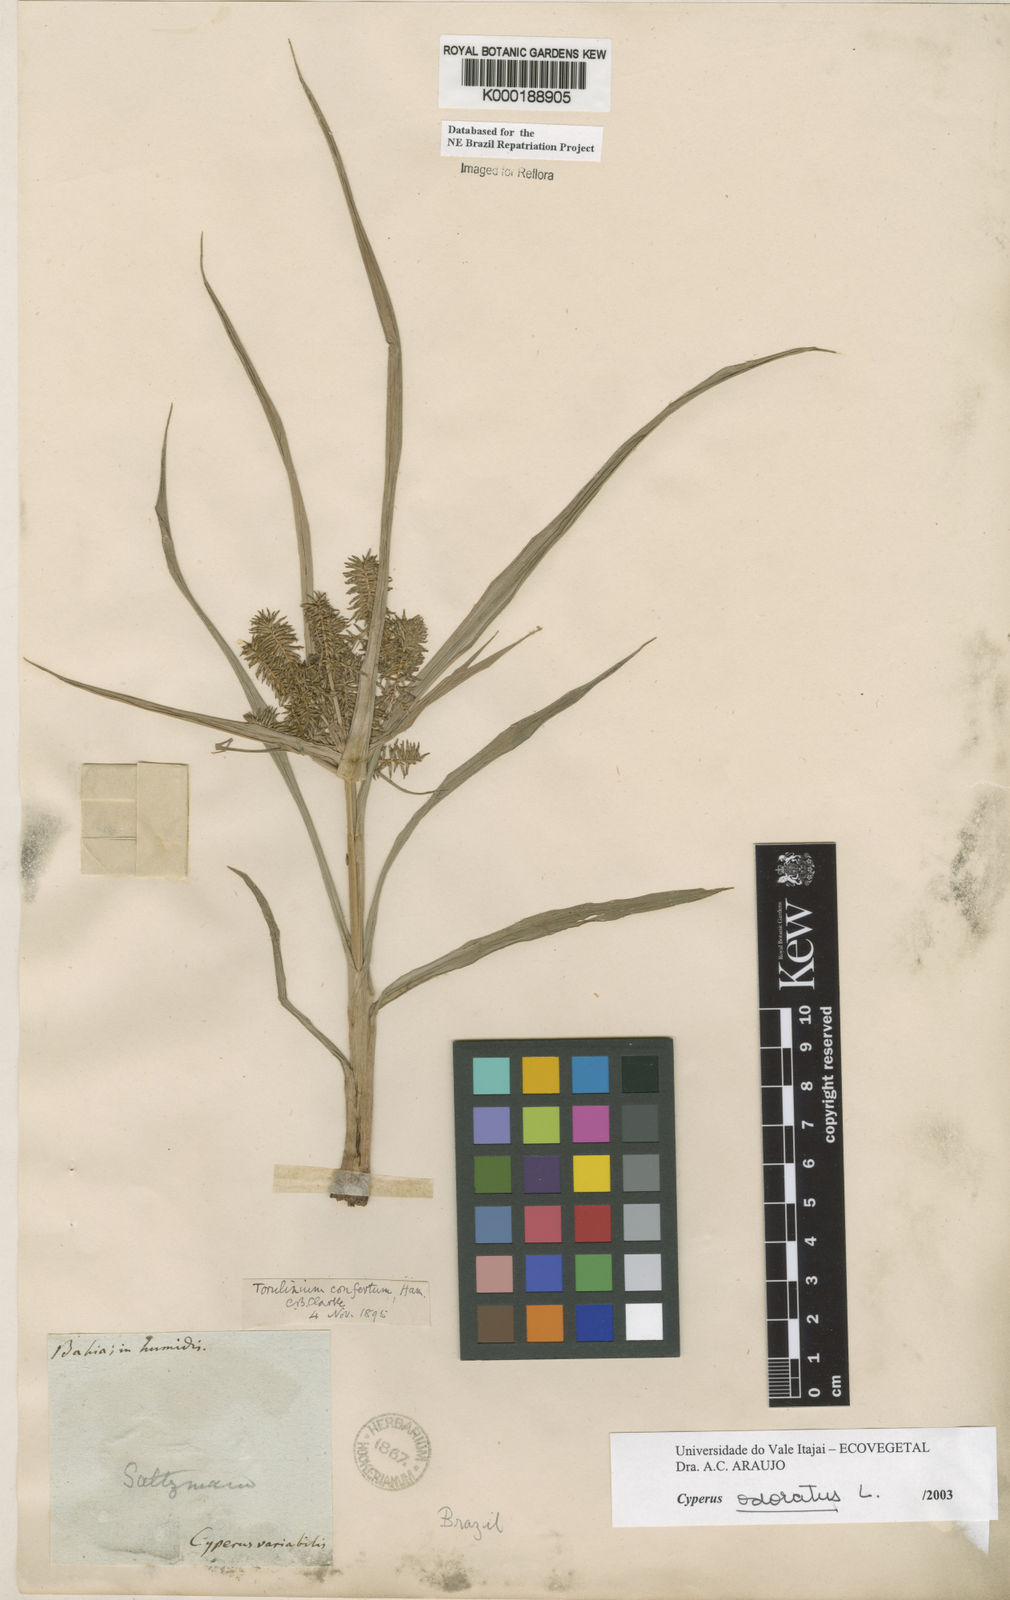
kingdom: Plantae
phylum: Tracheophyta
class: Liliopsida
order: Poales
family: Cyperaceae
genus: Cyperus
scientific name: Cyperus odoratus
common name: Fragrant flatsedge
